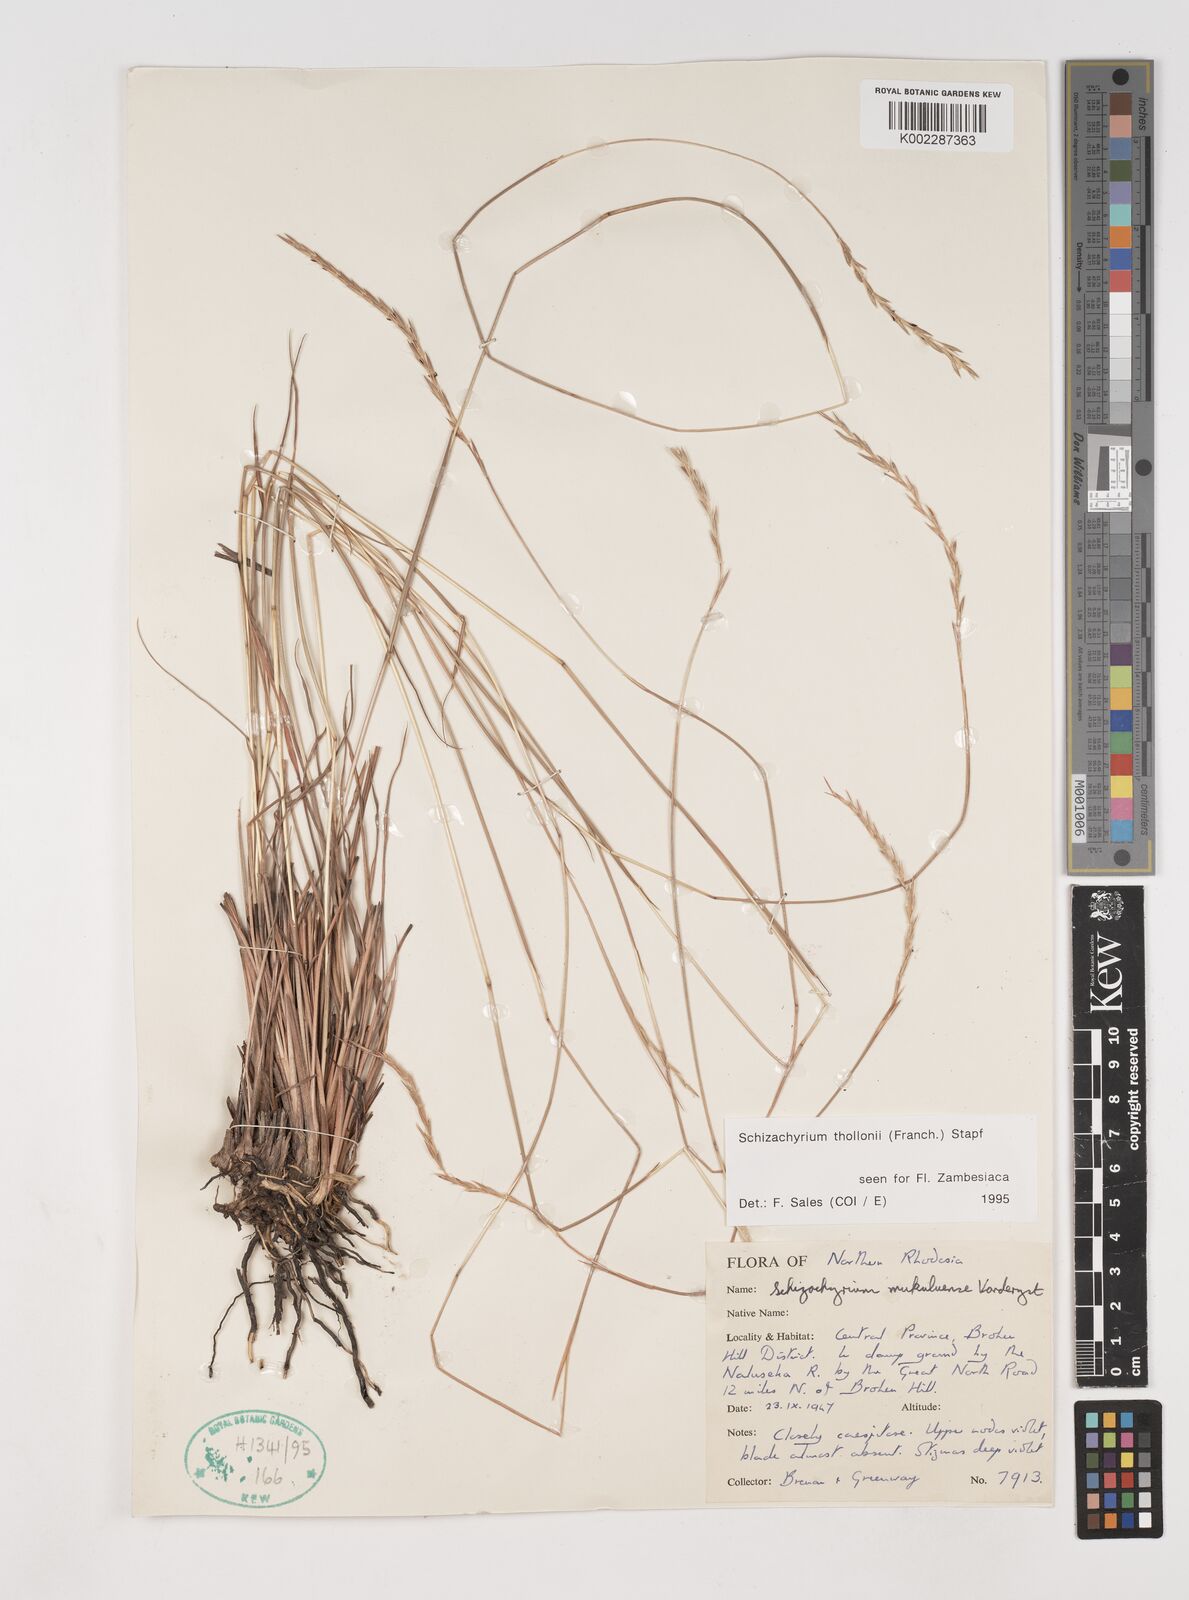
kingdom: Plantae
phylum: Tracheophyta
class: Liliopsida
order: Poales
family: Poaceae
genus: Schizachyrium
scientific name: Schizachyrium thollonii
